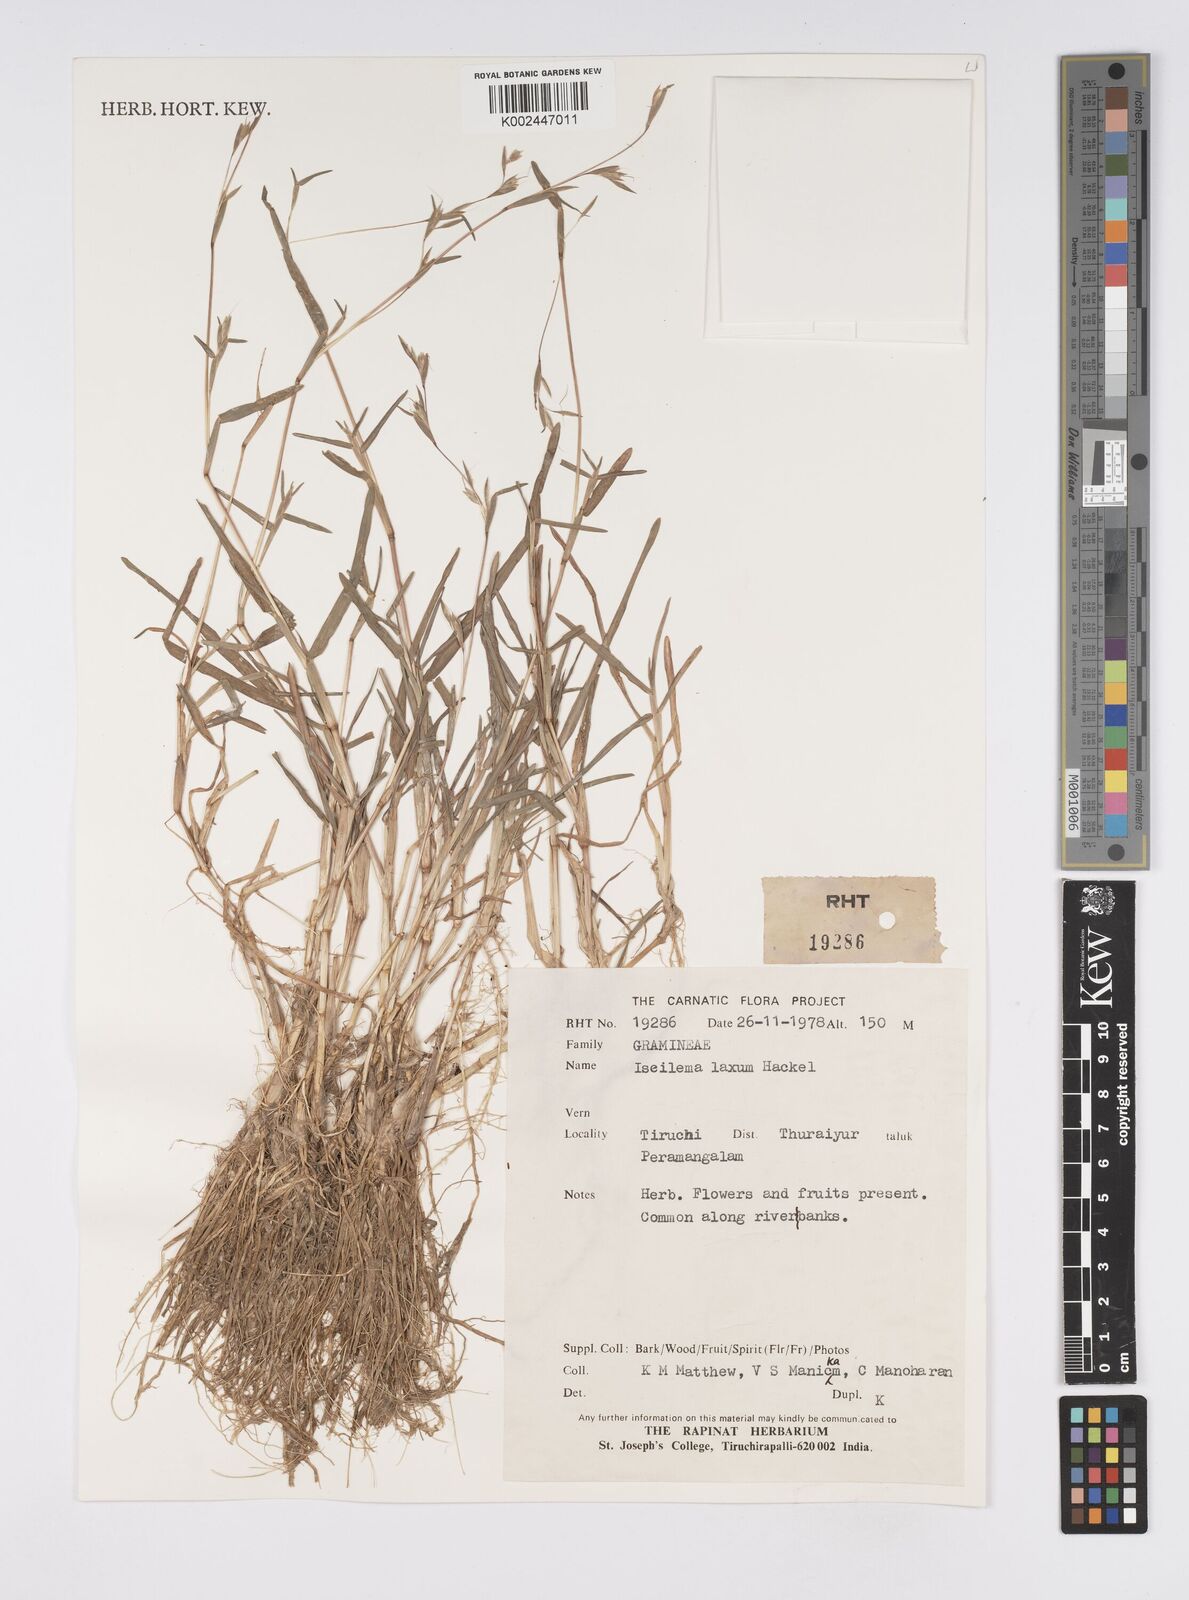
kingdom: Plantae
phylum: Tracheophyta
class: Liliopsida
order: Poales
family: Poaceae
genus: Iseilema
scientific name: Iseilema prostratum
